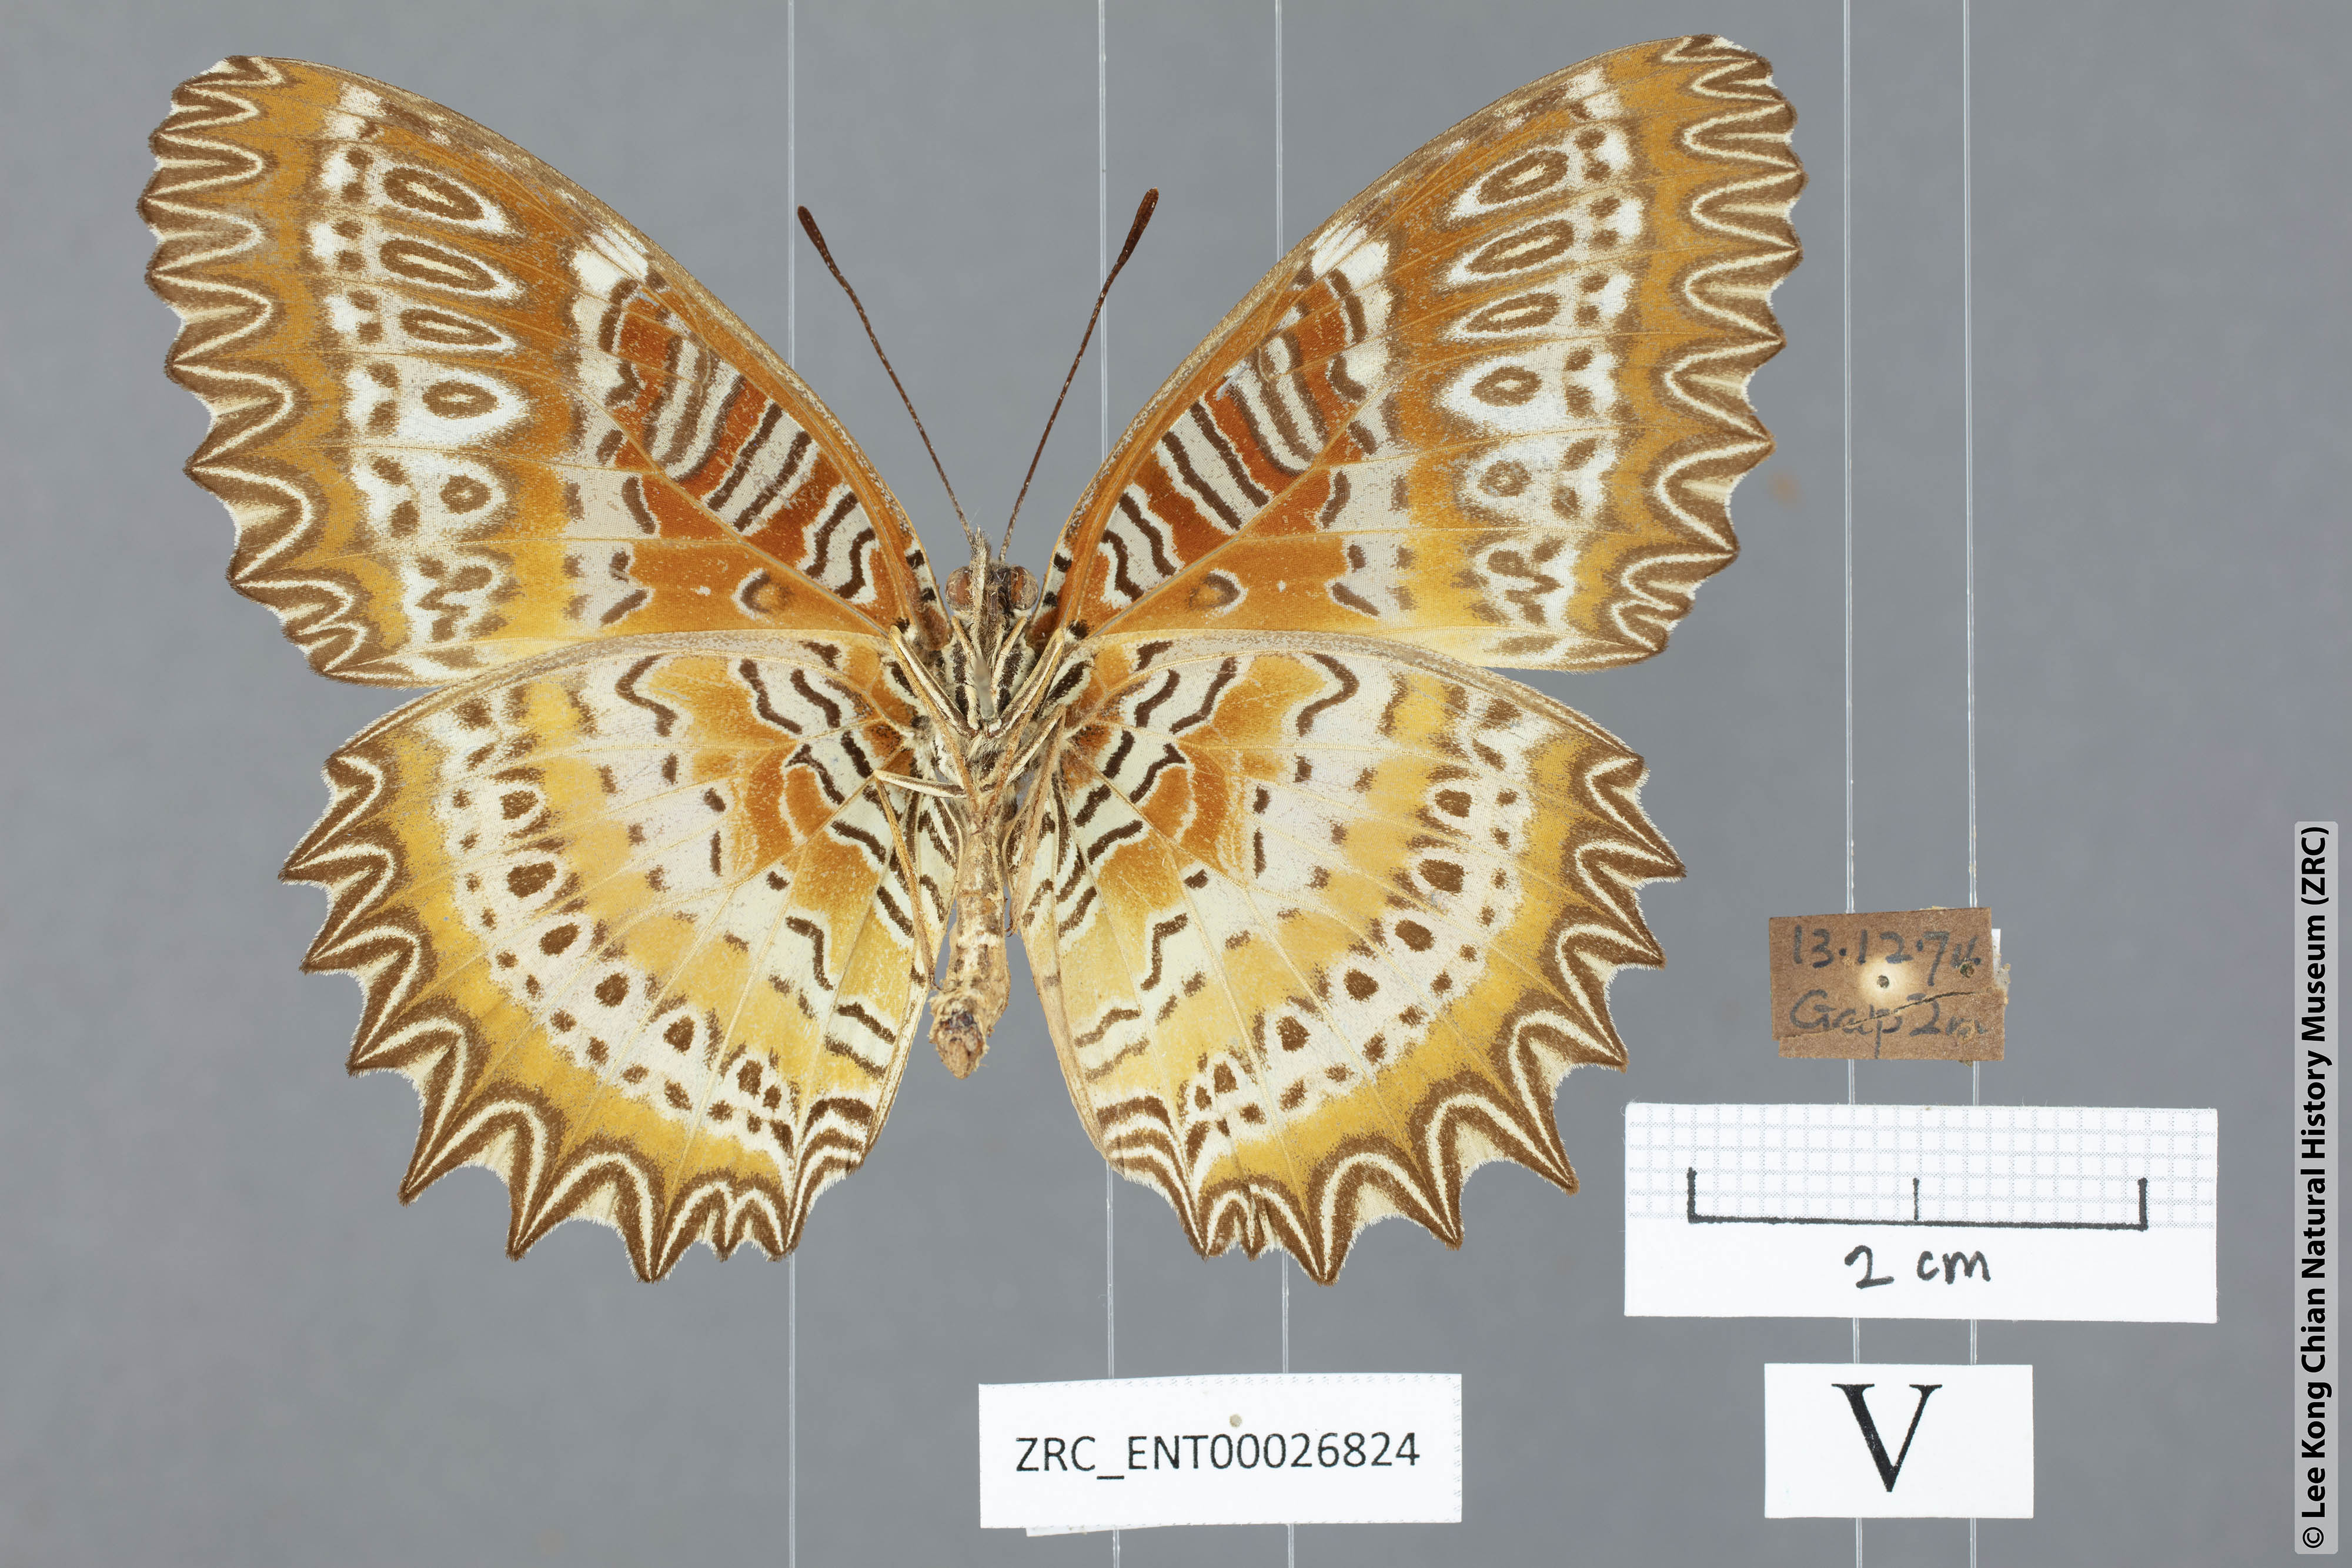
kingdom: Animalia
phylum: Arthropoda
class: Insecta
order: Lepidoptera
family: Nymphalidae
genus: Cethosia
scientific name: Cethosia biblis
